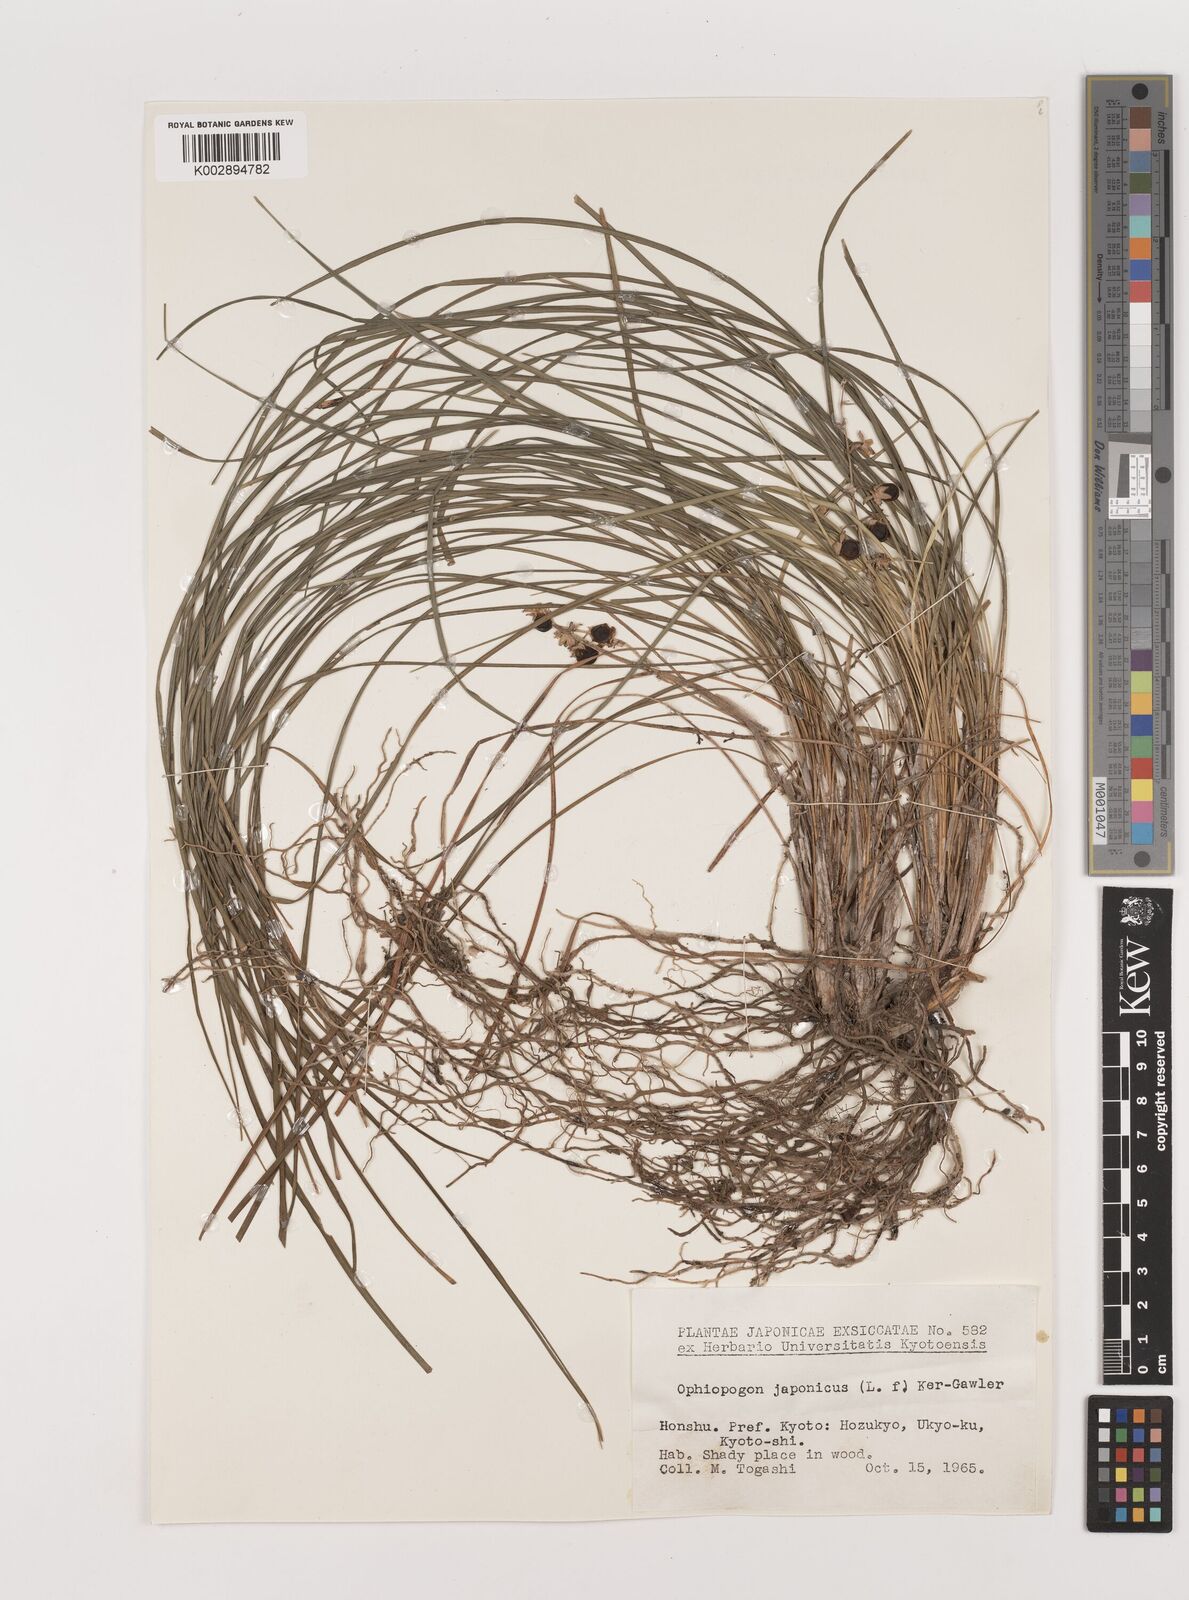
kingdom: Plantae
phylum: Tracheophyta
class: Liliopsida
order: Asparagales
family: Asparagaceae
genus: Ophiopogon
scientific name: Ophiopogon japonicus
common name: Dwarf lilyturf
